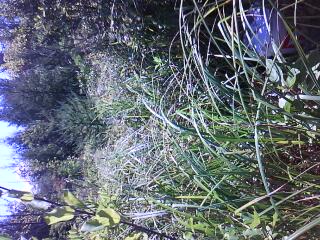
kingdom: Plantae
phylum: Tracheophyta
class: Magnoliopsida
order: Asterales
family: Asteraceae
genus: Solidago
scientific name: Solidago canadensis
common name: Canada goldenrod
